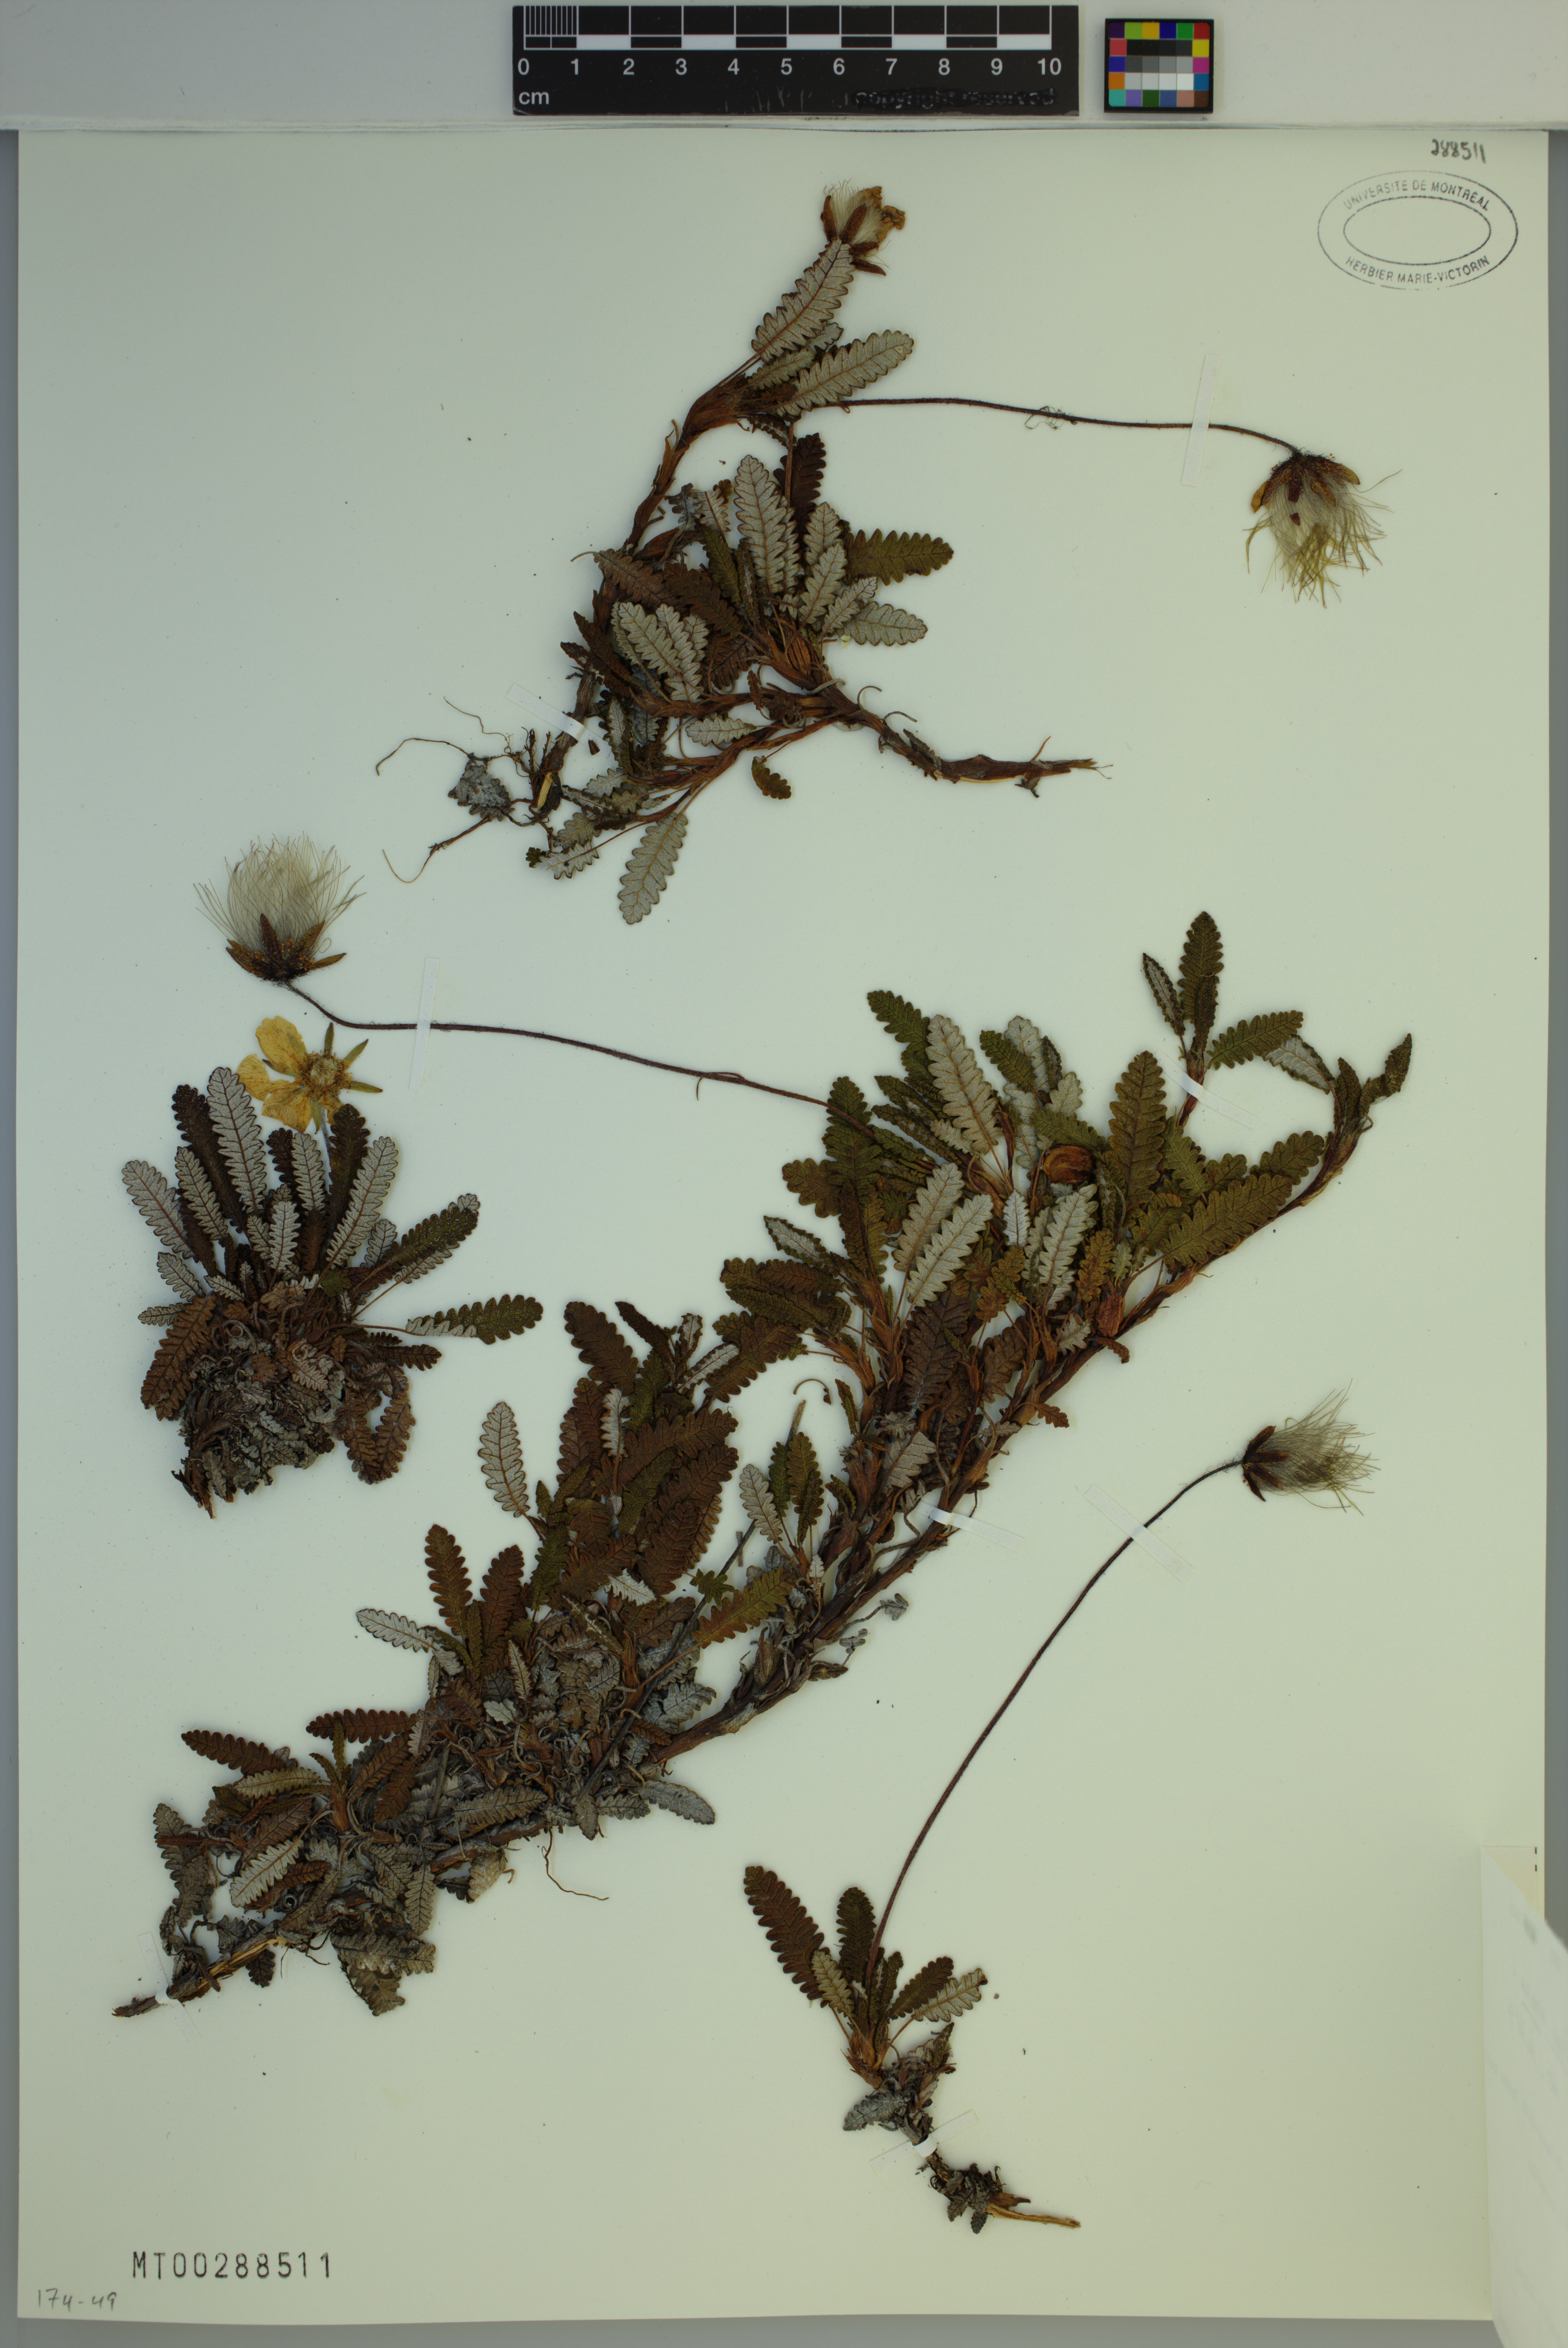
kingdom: Plantae
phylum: Tracheophyta
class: Magnoliopsida
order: Rosales
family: Rosaceae
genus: Dryas
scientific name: Dryas octopetala
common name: Eight-petal mountain-avens
